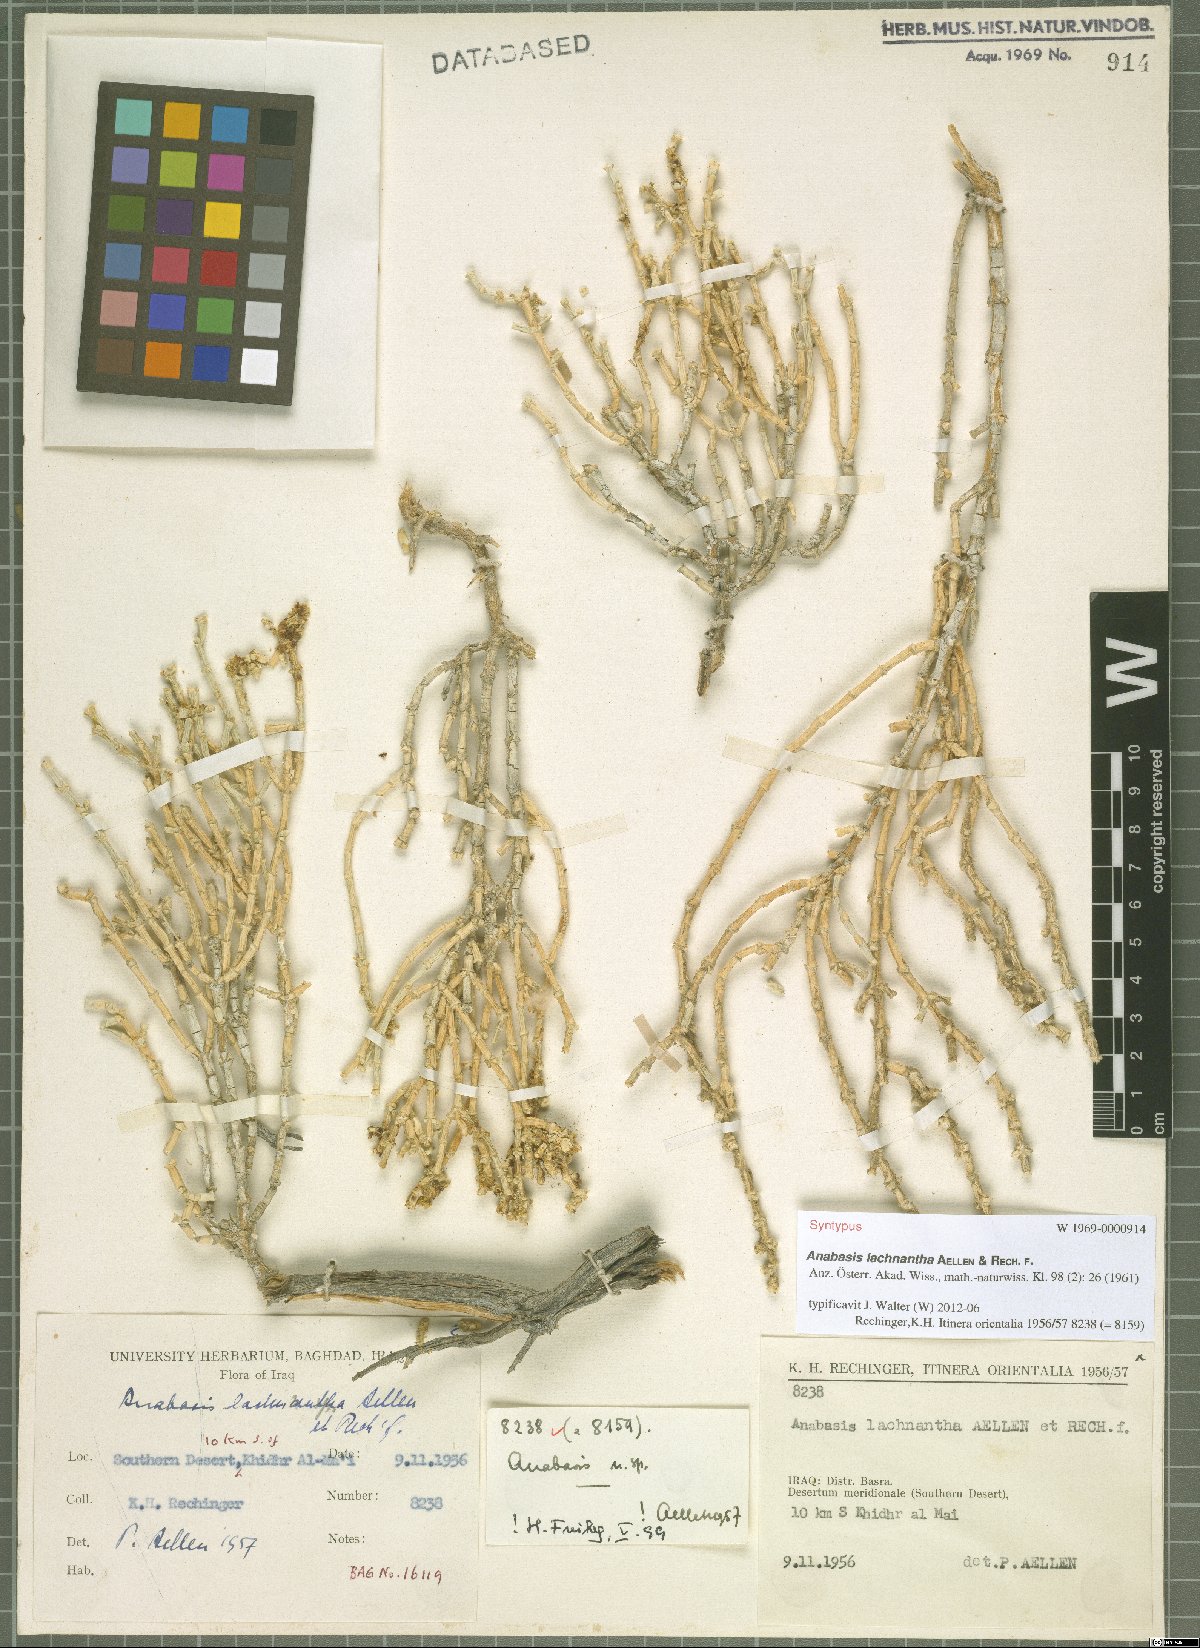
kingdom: Plantae
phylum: Tracheophyta
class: Magnoliopsida
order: Caryophyllales
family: Amaranthaceae
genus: Anabasis
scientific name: Anabasis lachnantha
